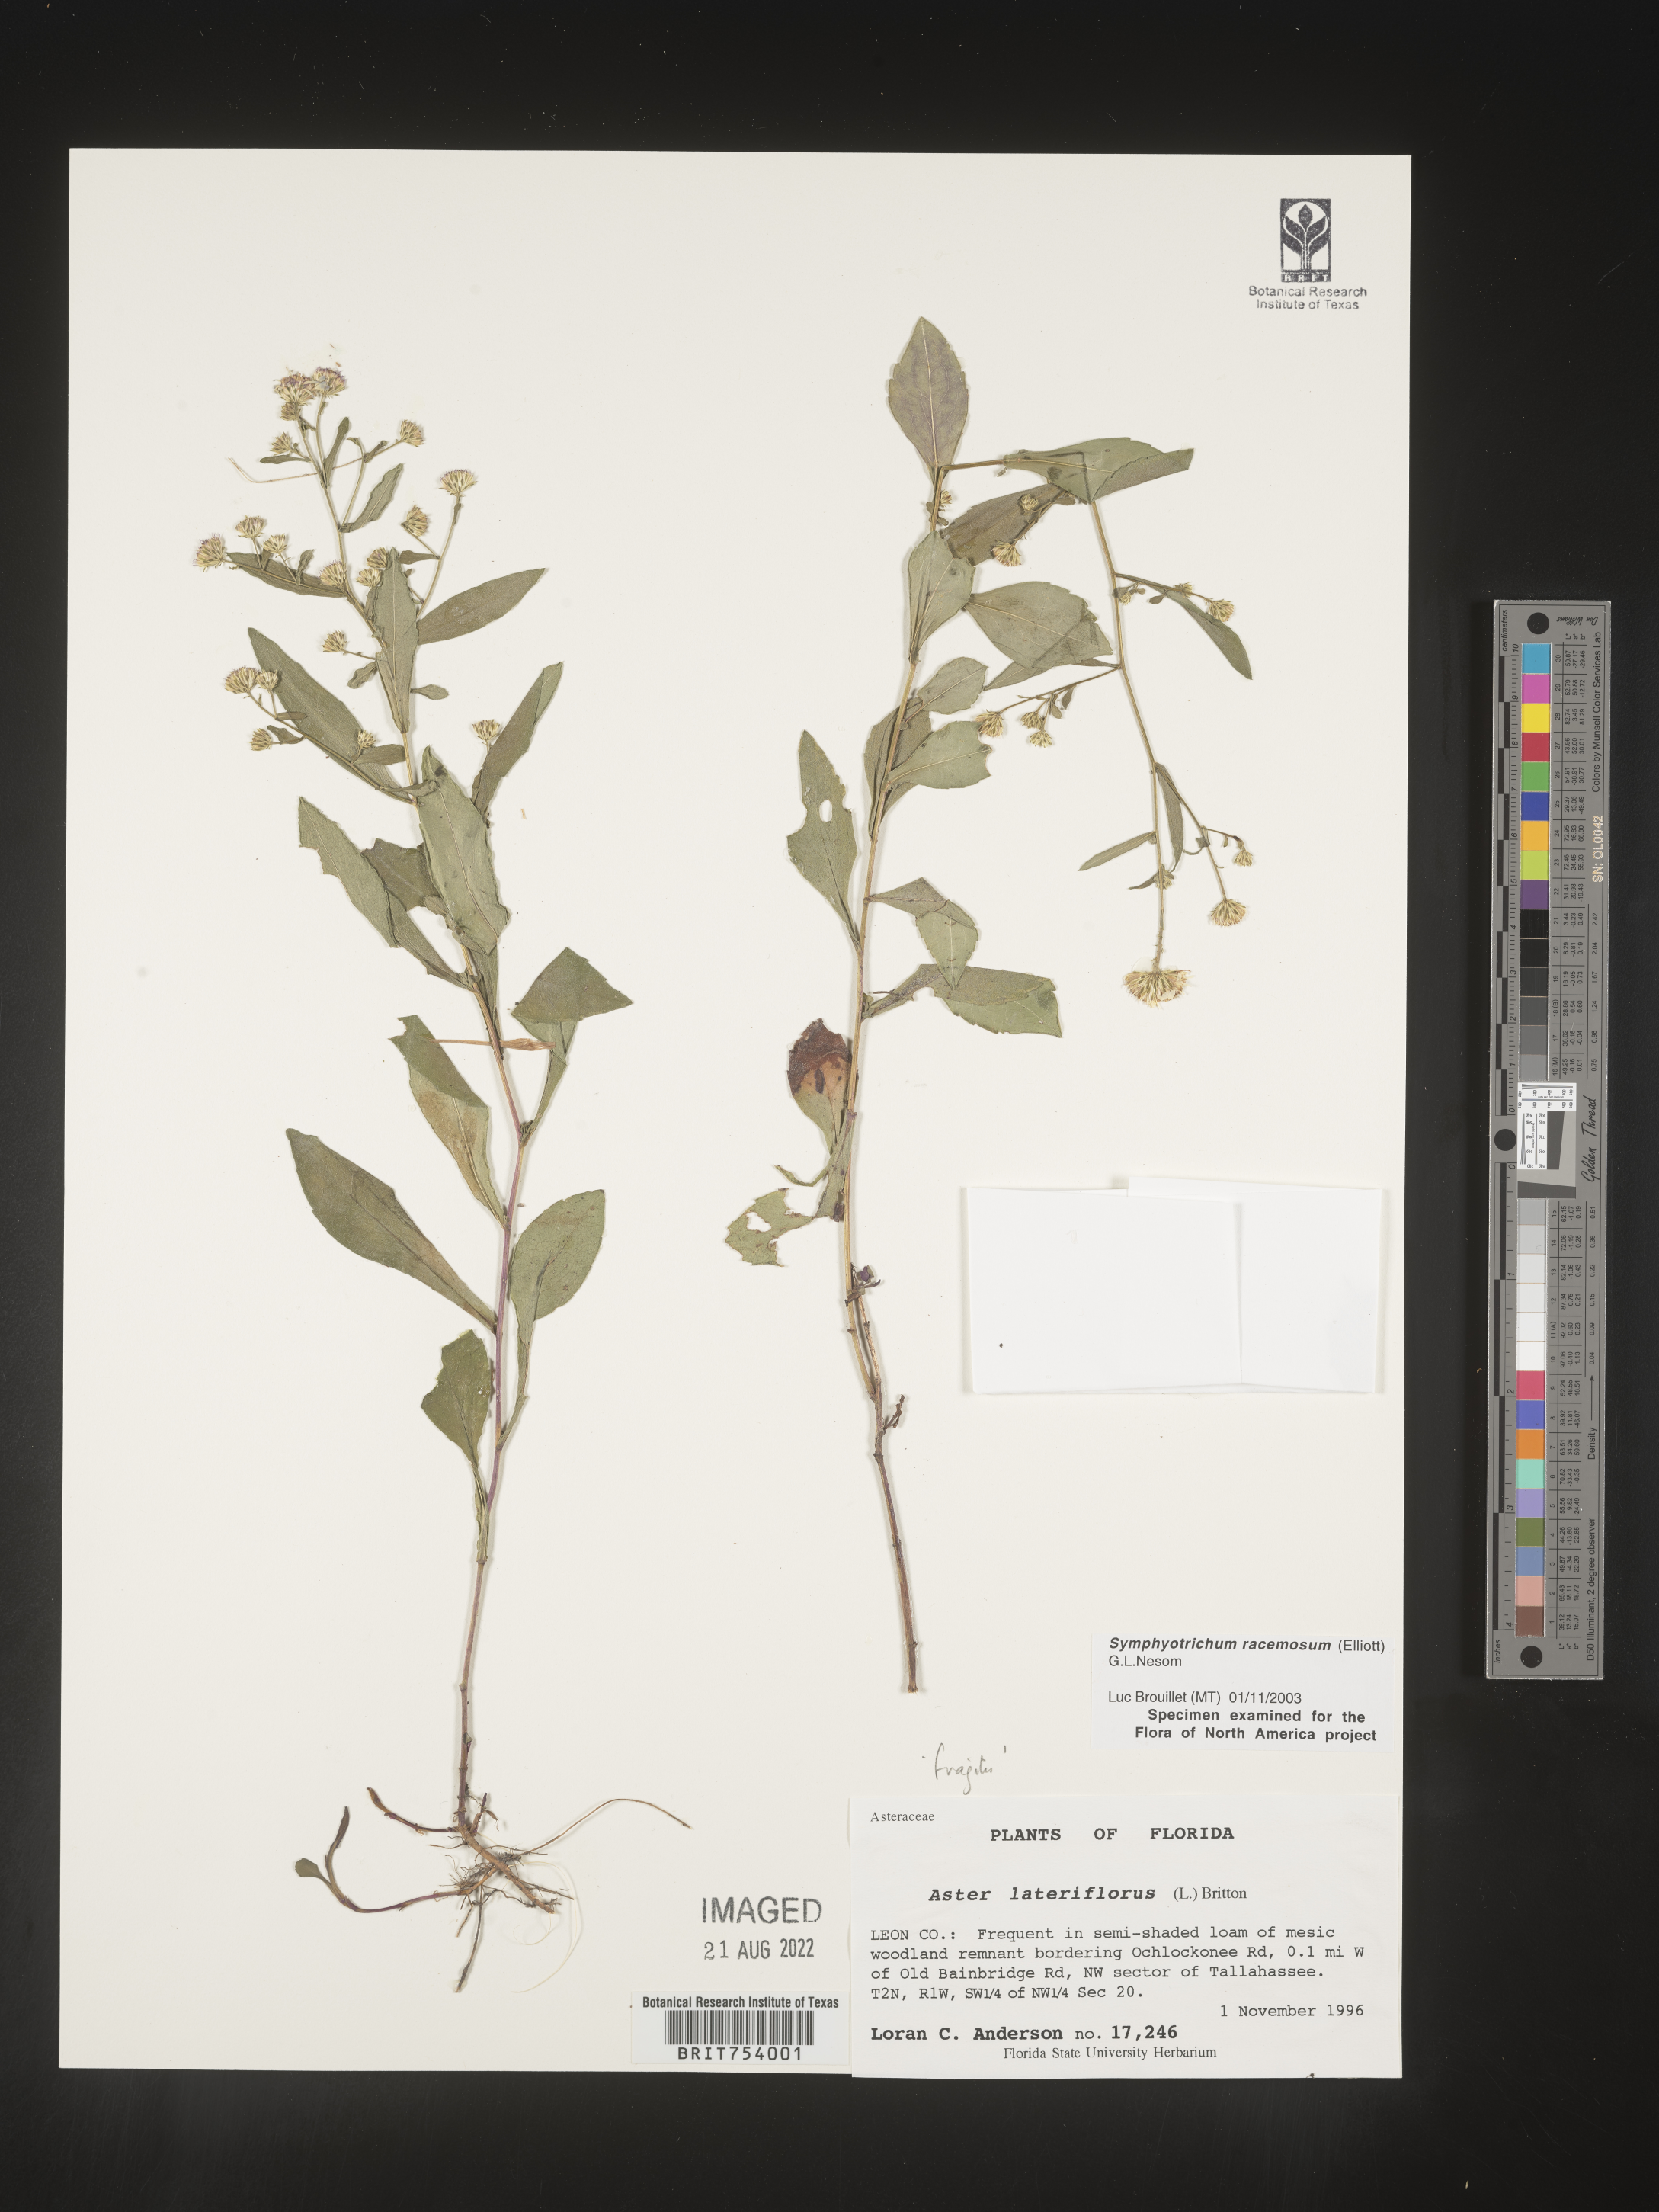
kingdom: Plantae
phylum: Tracheophyta
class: Magnoliopsida
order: Asterales
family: Asteraceae
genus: Symphyotrichum
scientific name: Symphyotrichum racemosum
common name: Small white aster
